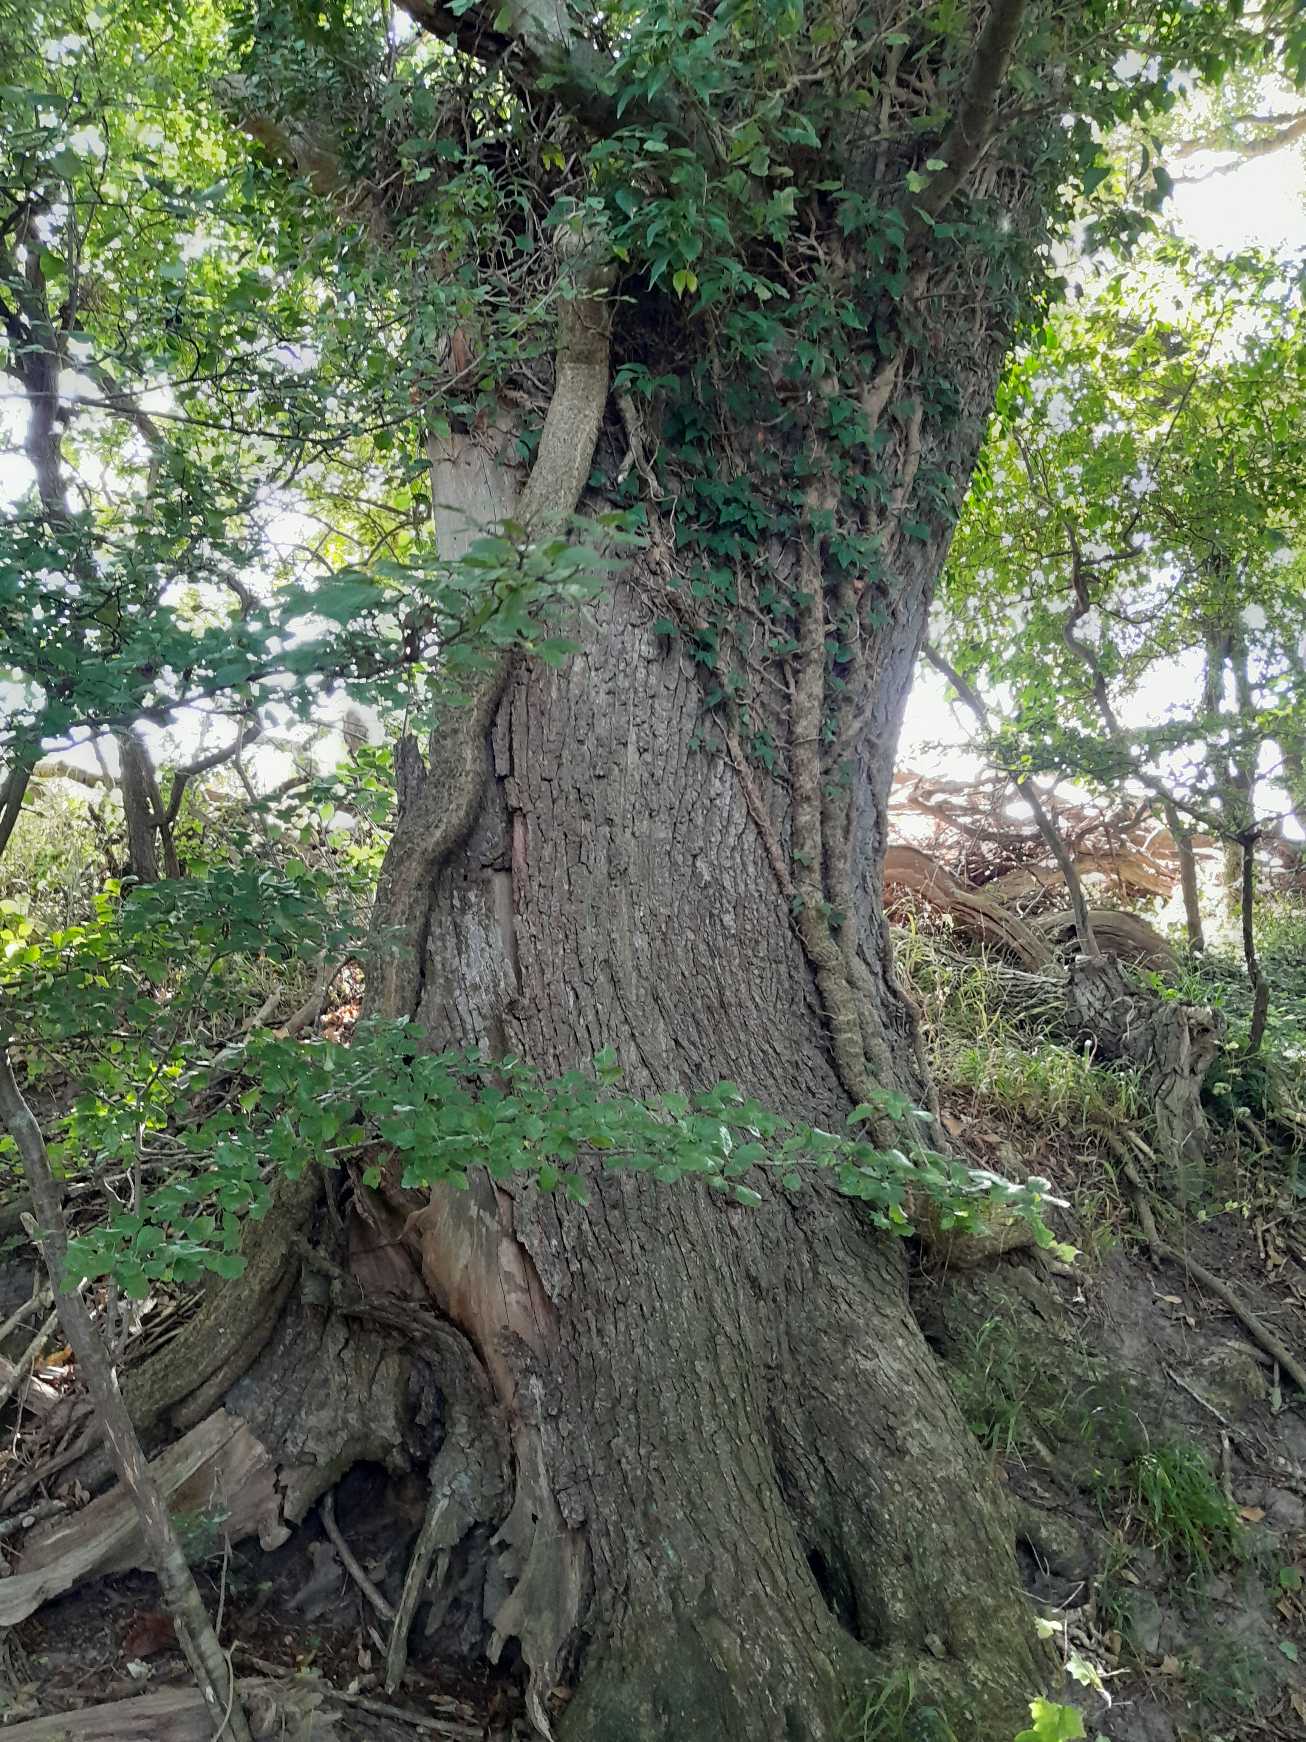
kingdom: Plantae
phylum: Tracheophyta
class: Magnoliopsida
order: Fagales
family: Fagaceae
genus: Quercus
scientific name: Quercus robur
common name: Stilk-eg/almindelig eg
